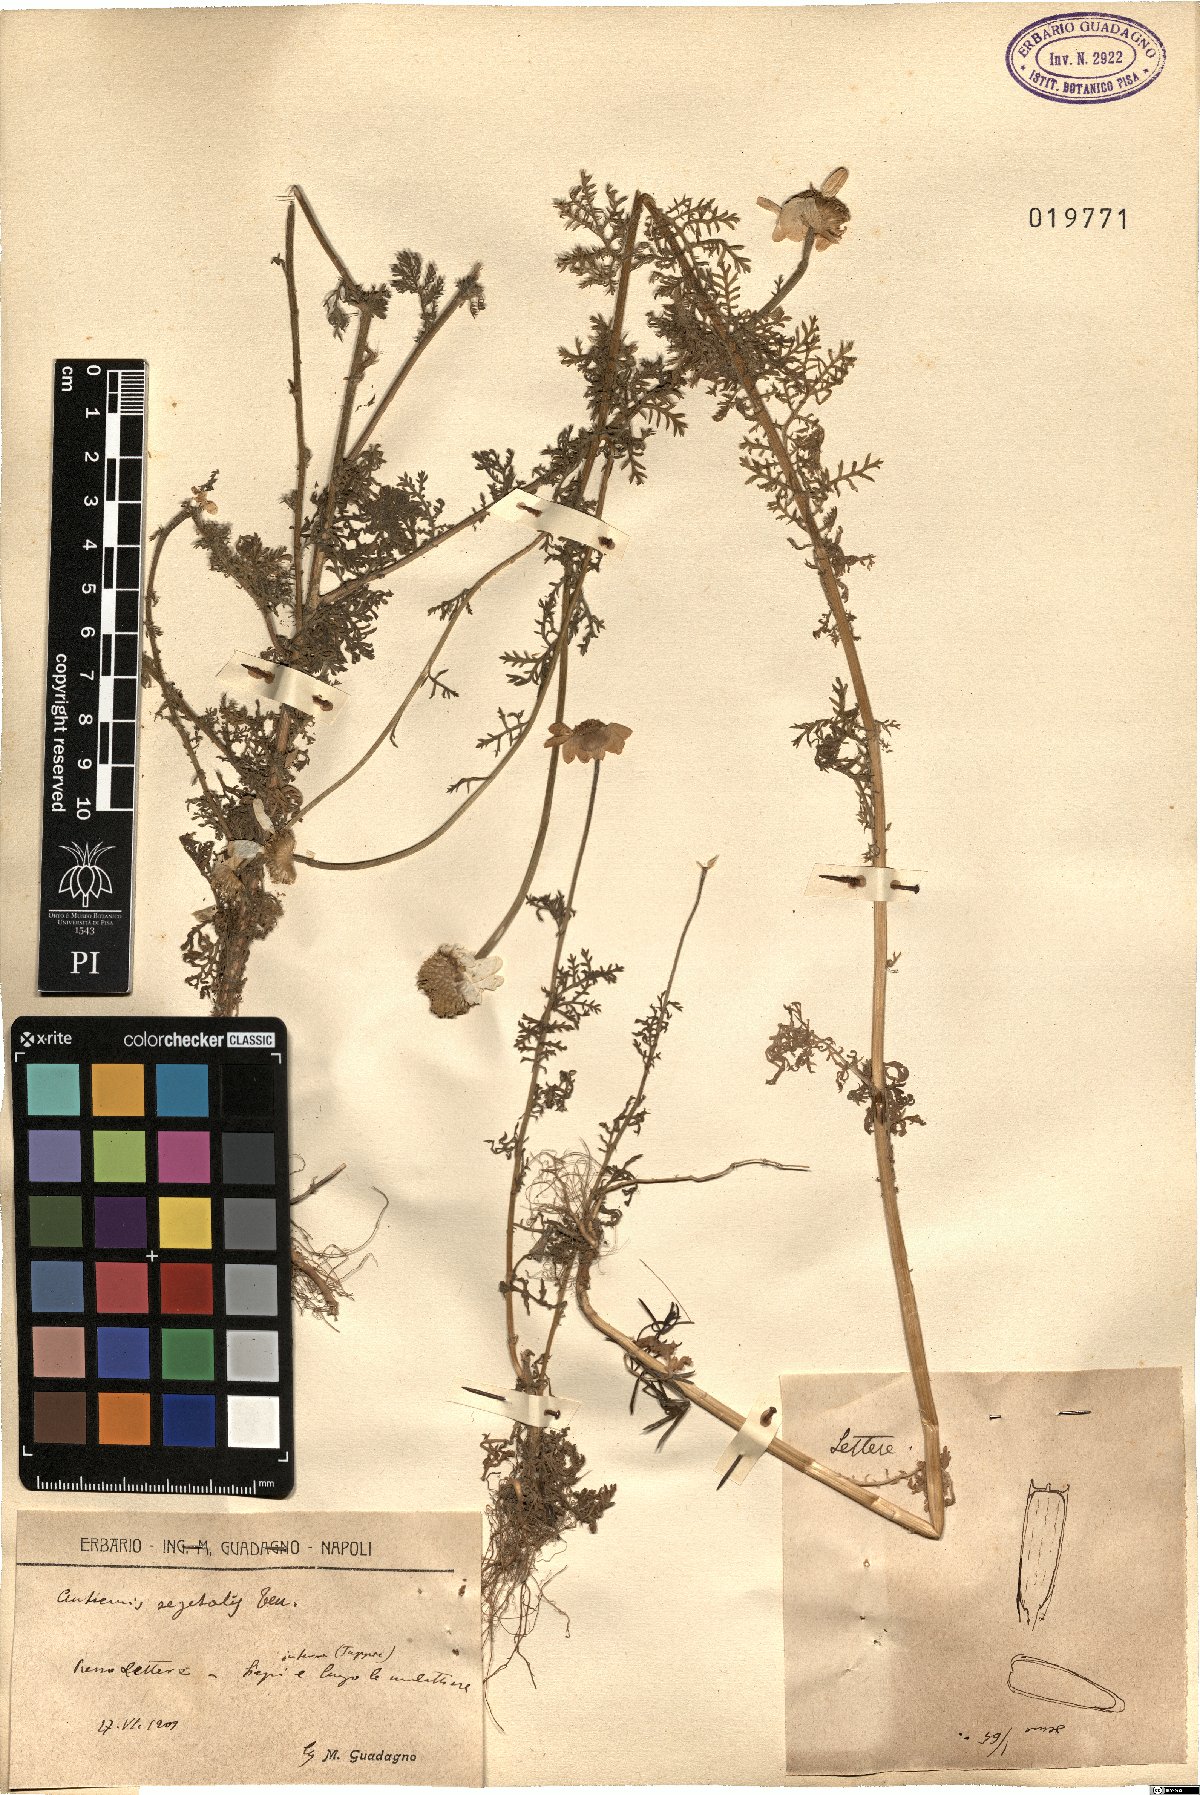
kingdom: Plantae
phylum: Tracheophyta
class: Magnoliopsida
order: Asterales
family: Asteraceae
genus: Cota
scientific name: Cota segetalis
